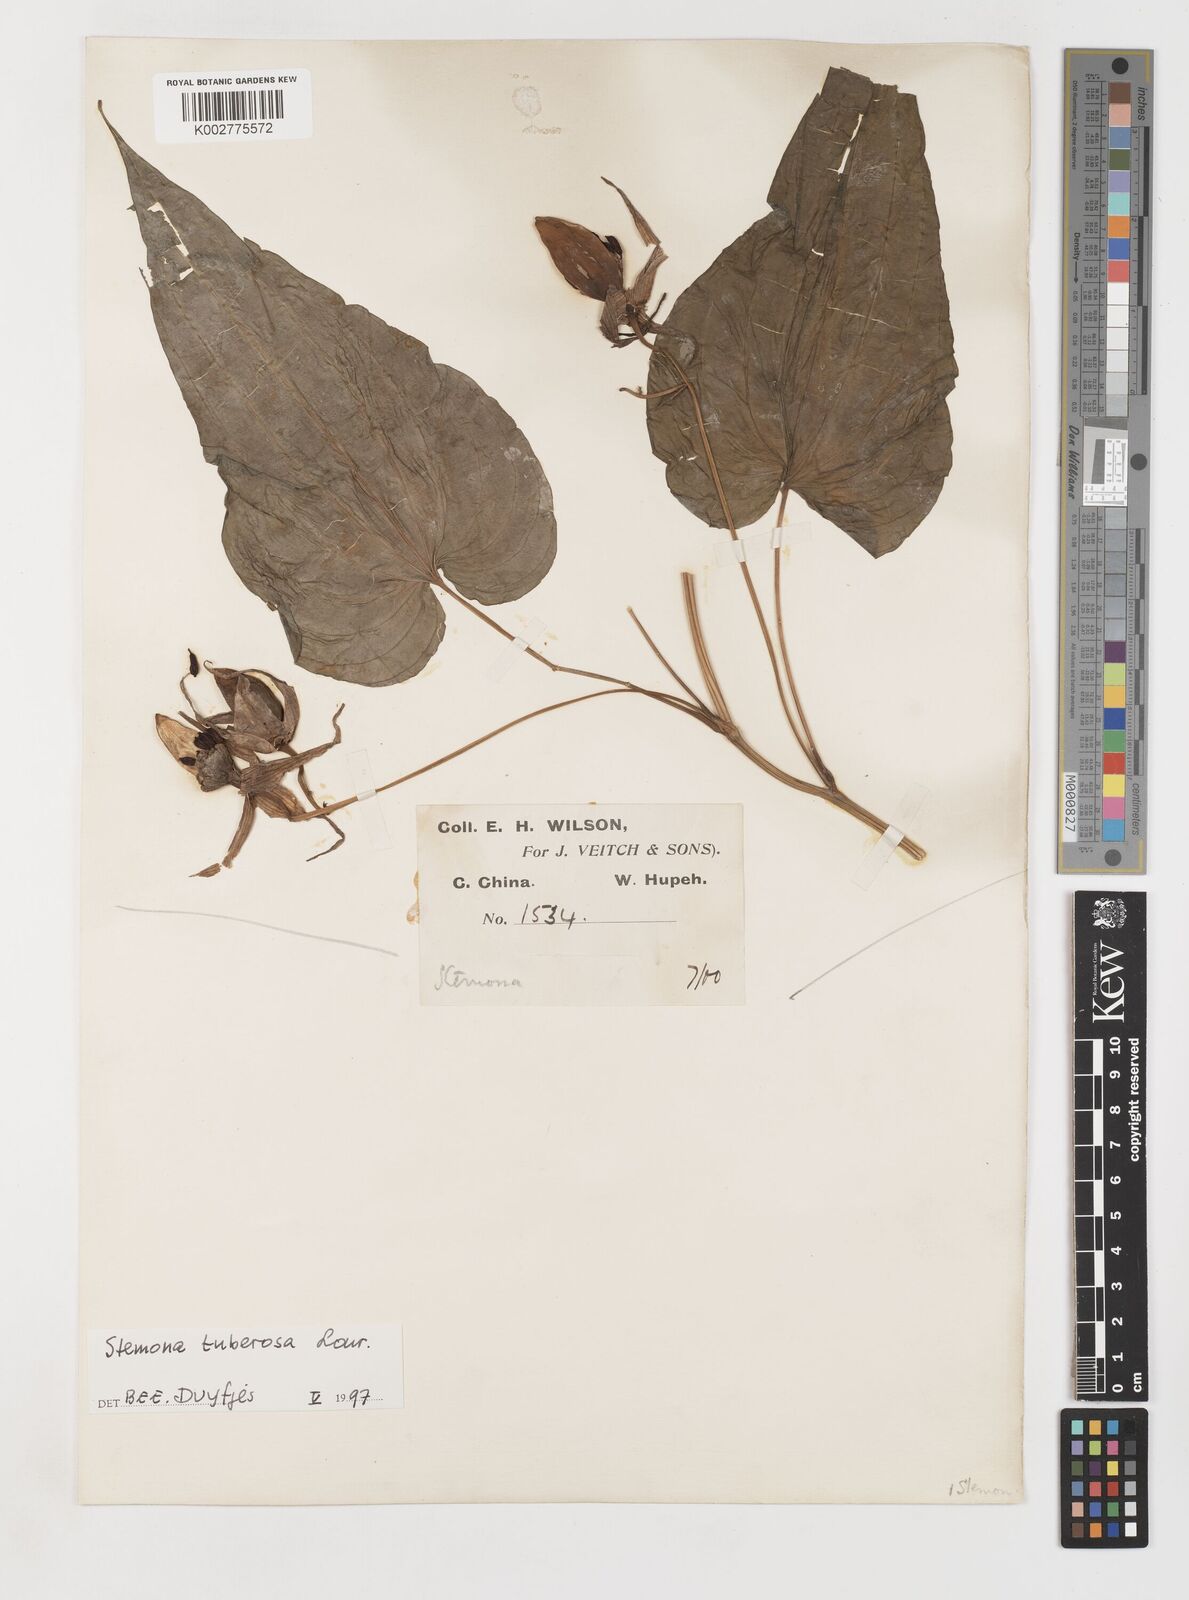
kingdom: Plantae
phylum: Tracheophyta
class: Liliopsida
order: Pandanales
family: Stemonaceae
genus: Stemona
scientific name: Stemona tuberosa
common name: Stemona
